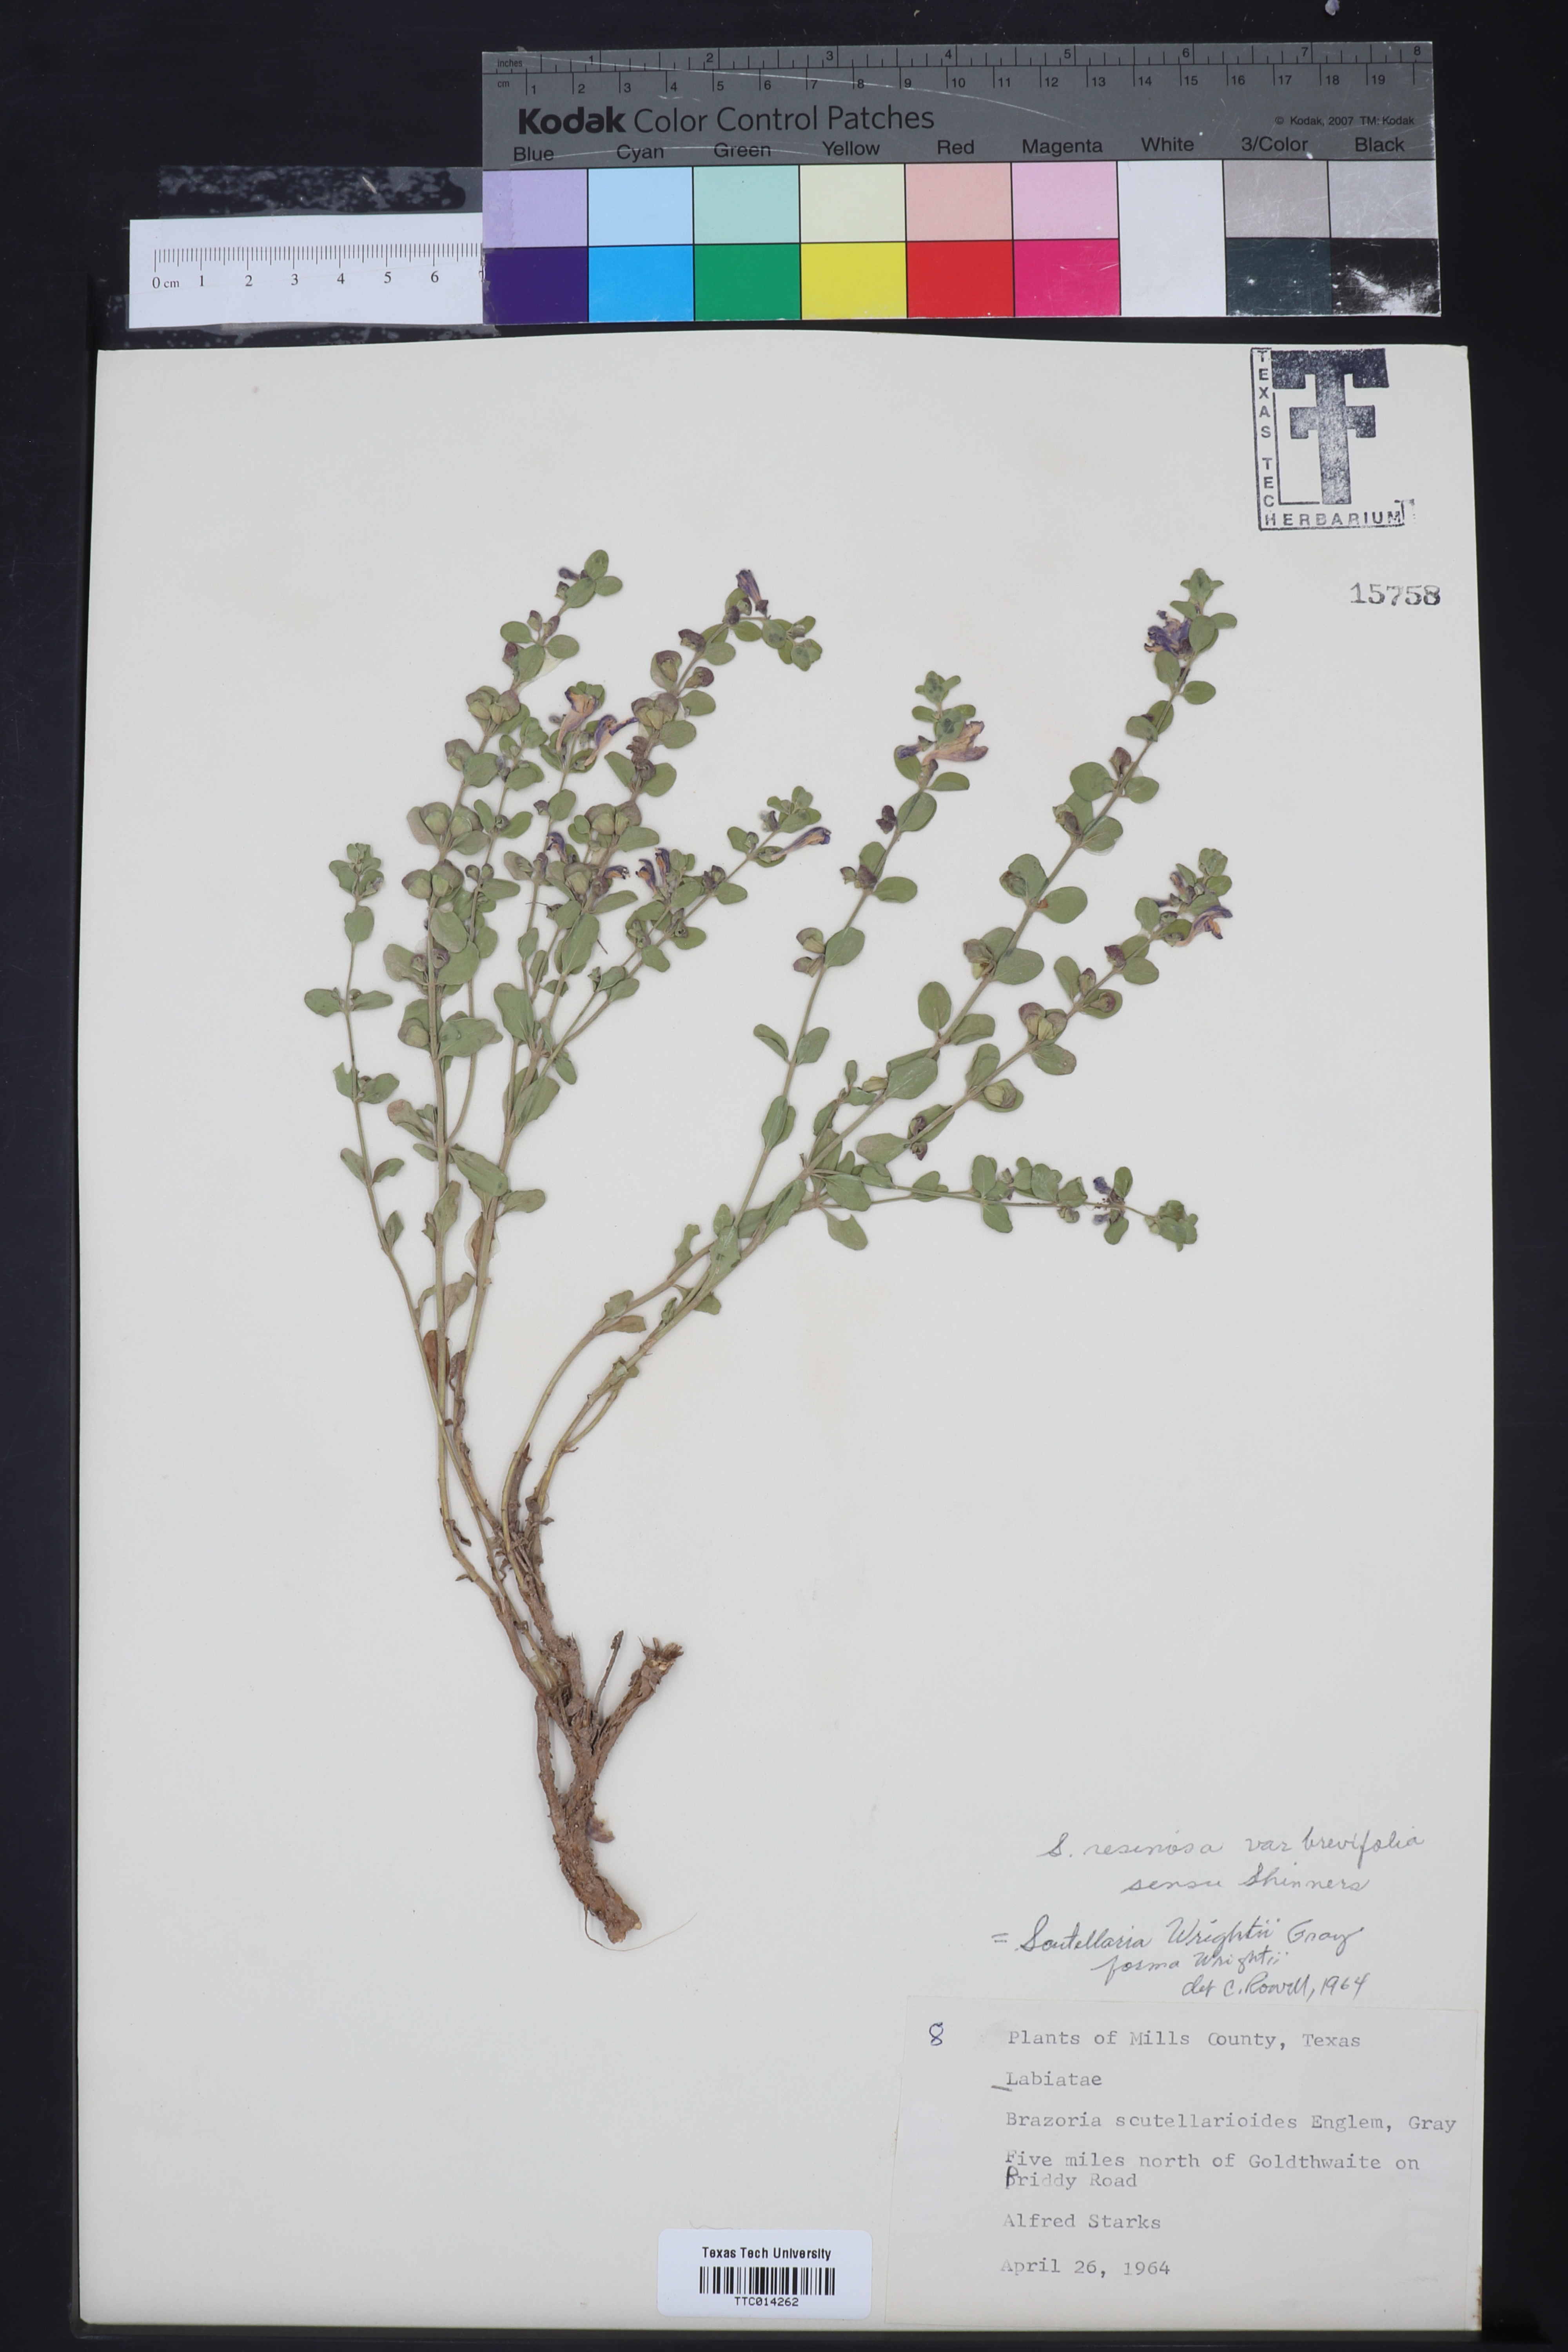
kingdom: Plantae
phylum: Tracheophyta
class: Magnoliopsida
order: Lamiales
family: Lamiaceae
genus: Scutellaria
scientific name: Scutellaria resinosa
